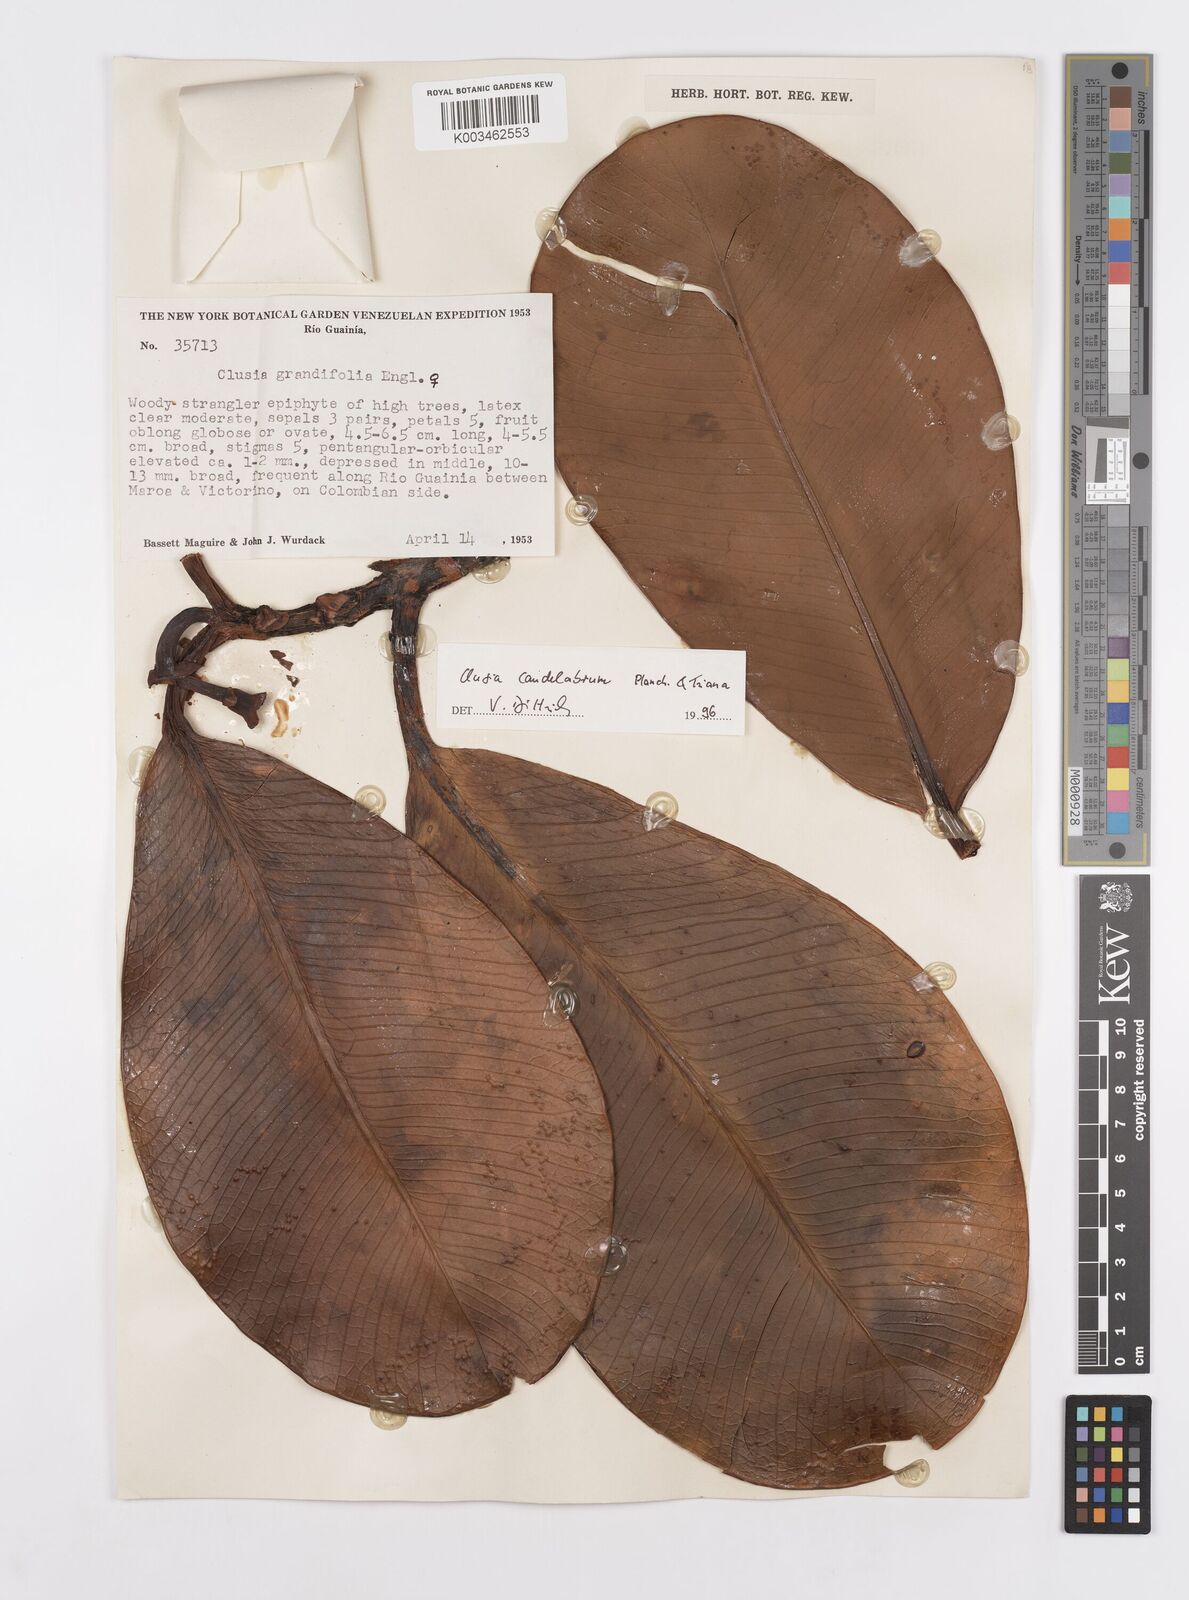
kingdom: Plantae
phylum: Tracheophyta
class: Magnoliopsida
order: Malpighiales
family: Clusiaceae
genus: Clusia
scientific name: Clusia candelabrum
